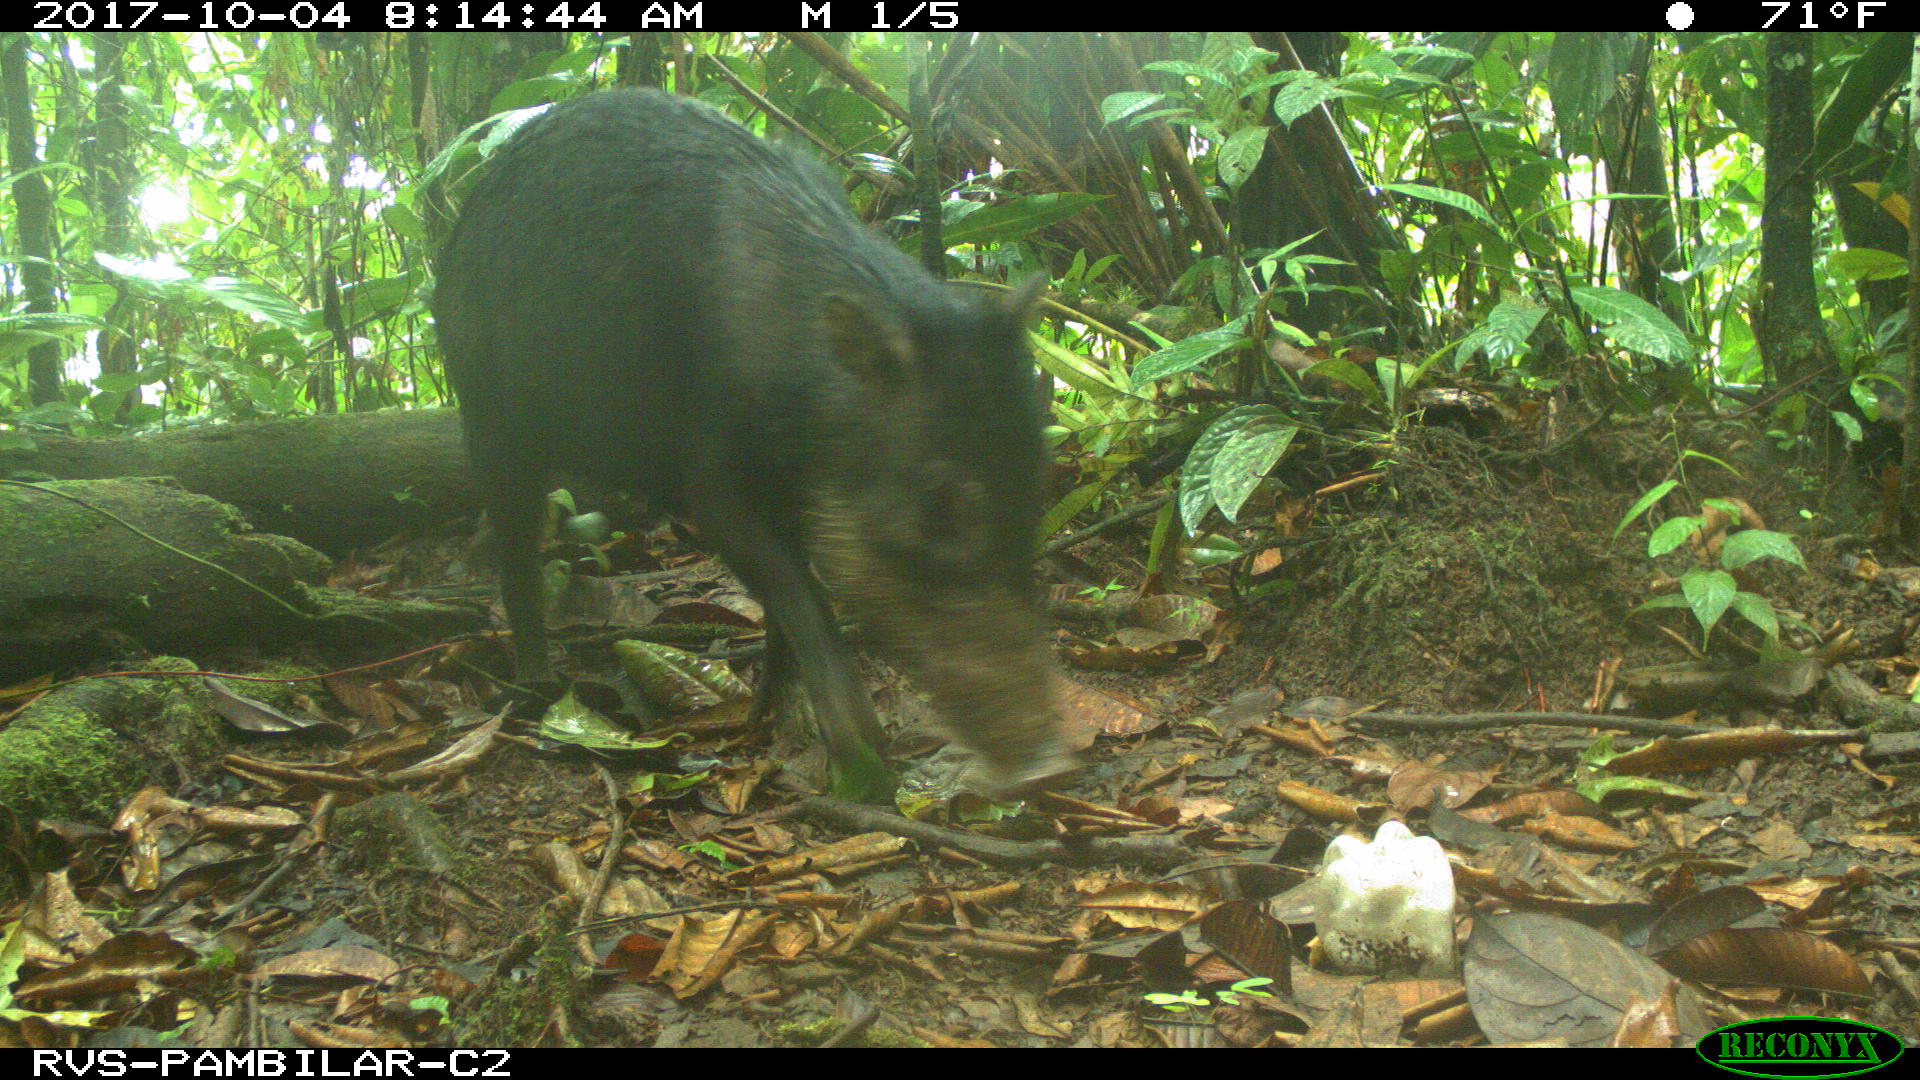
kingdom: Animalia
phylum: Chordata
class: Mammalia
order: Artiodactyla
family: Tayassuidae
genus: Tayassu
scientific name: Tayassu pecari
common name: White-lipped peccary
